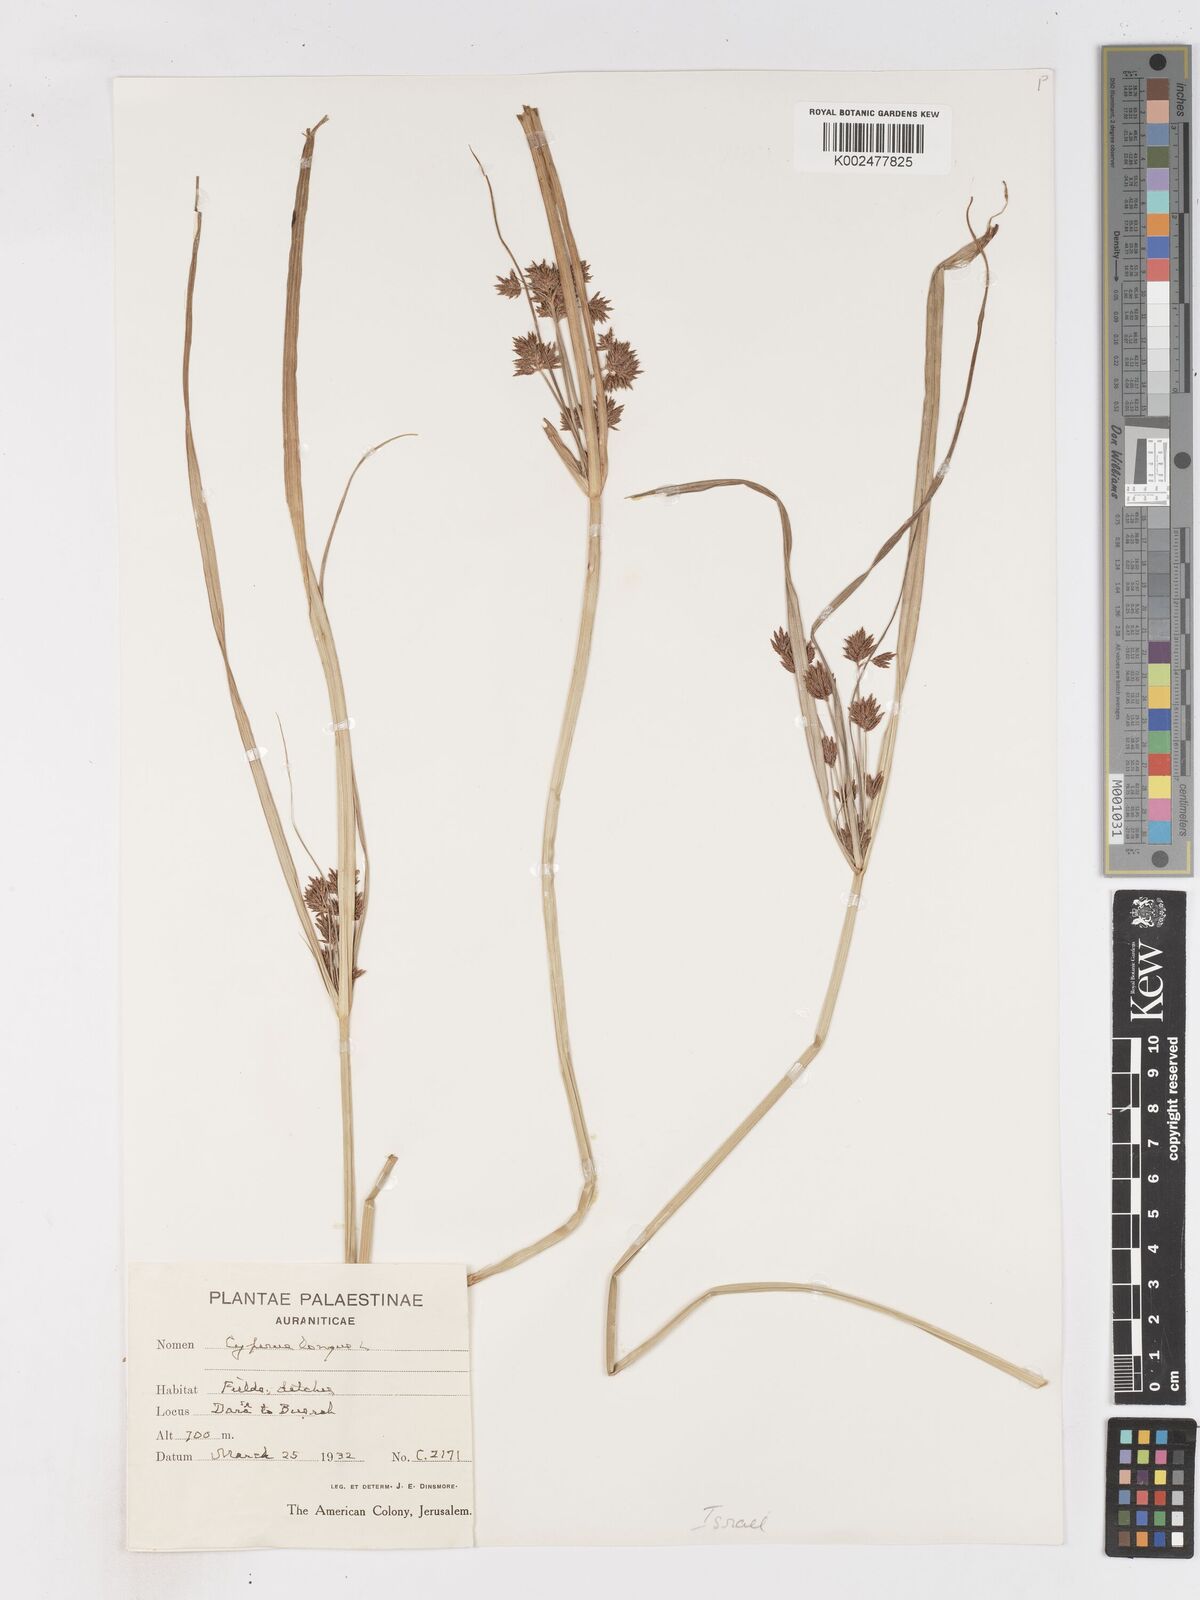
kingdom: Plantae
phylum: Tracheophyta
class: Liliopsida
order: Poales
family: Cyperaceae
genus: Cyperus
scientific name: Cyperus longus
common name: Galingale
